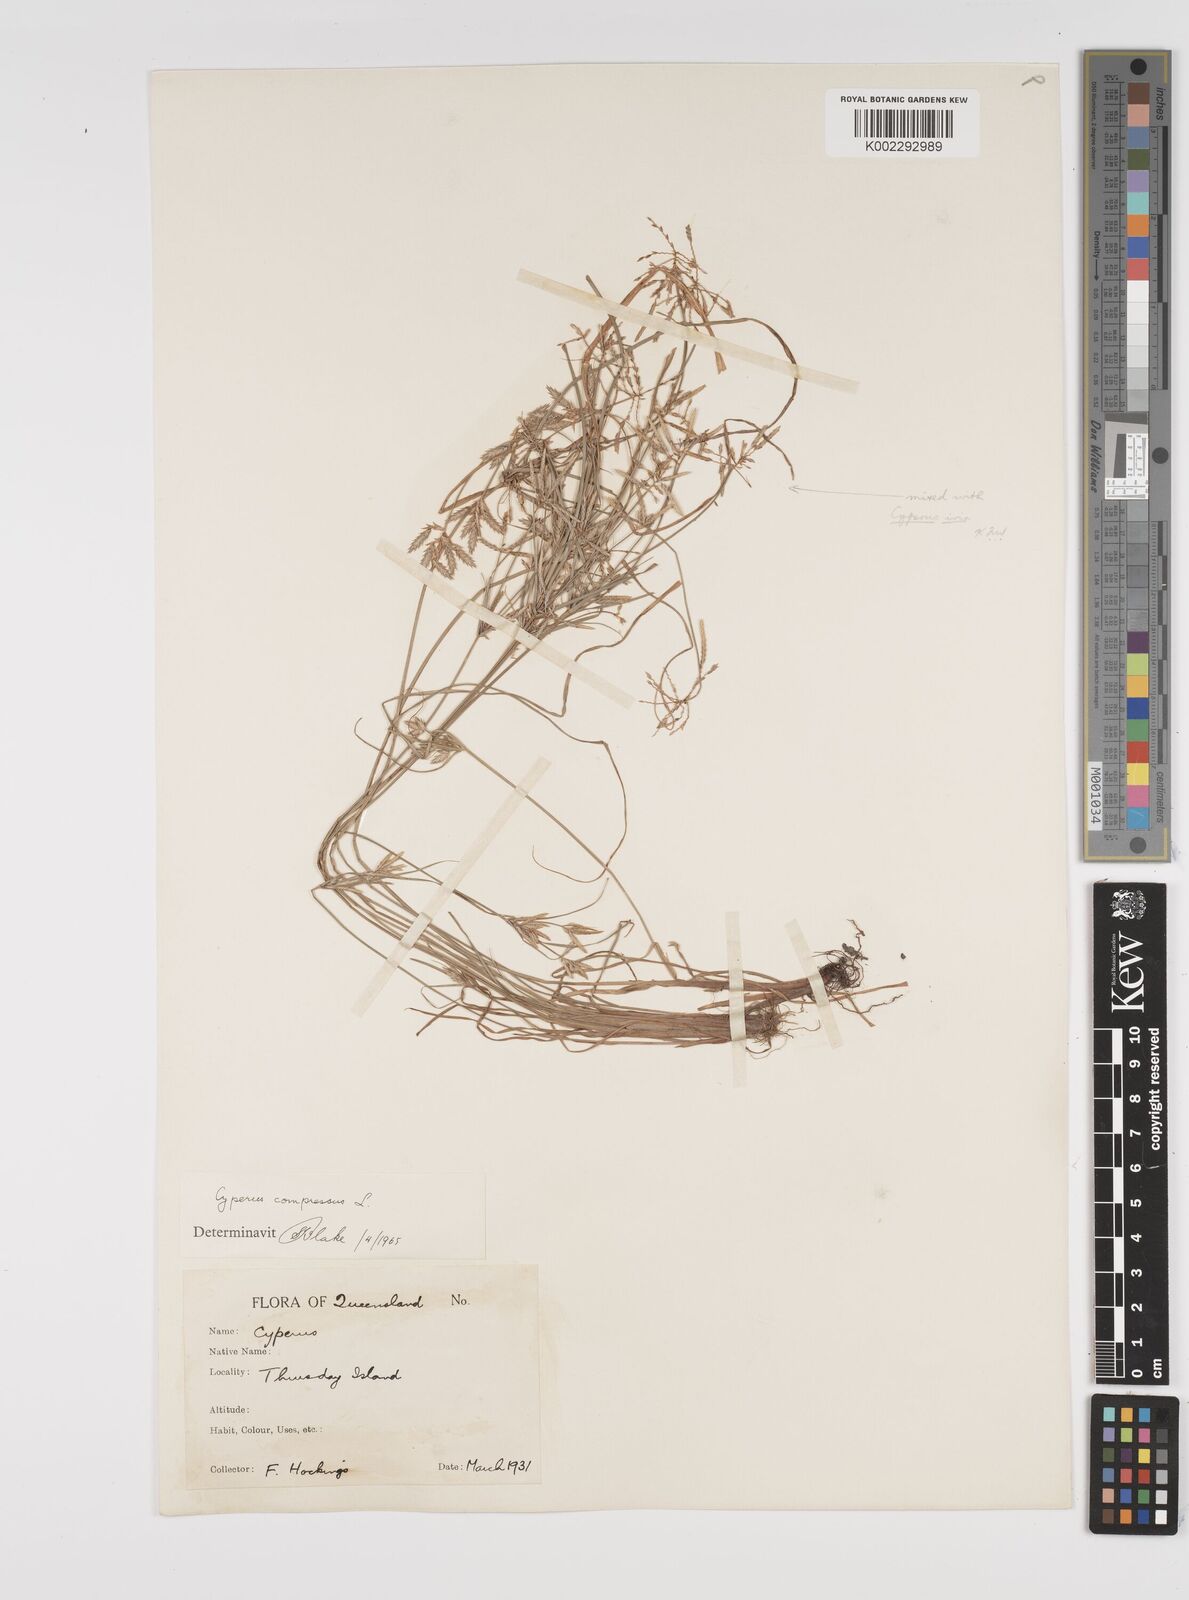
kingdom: Plantae
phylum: Tracheophyta
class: Liliopsida
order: Poales
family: Cyperaceae
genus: Cyperus
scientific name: Cyperus compressus
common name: Poorland flatsedge
